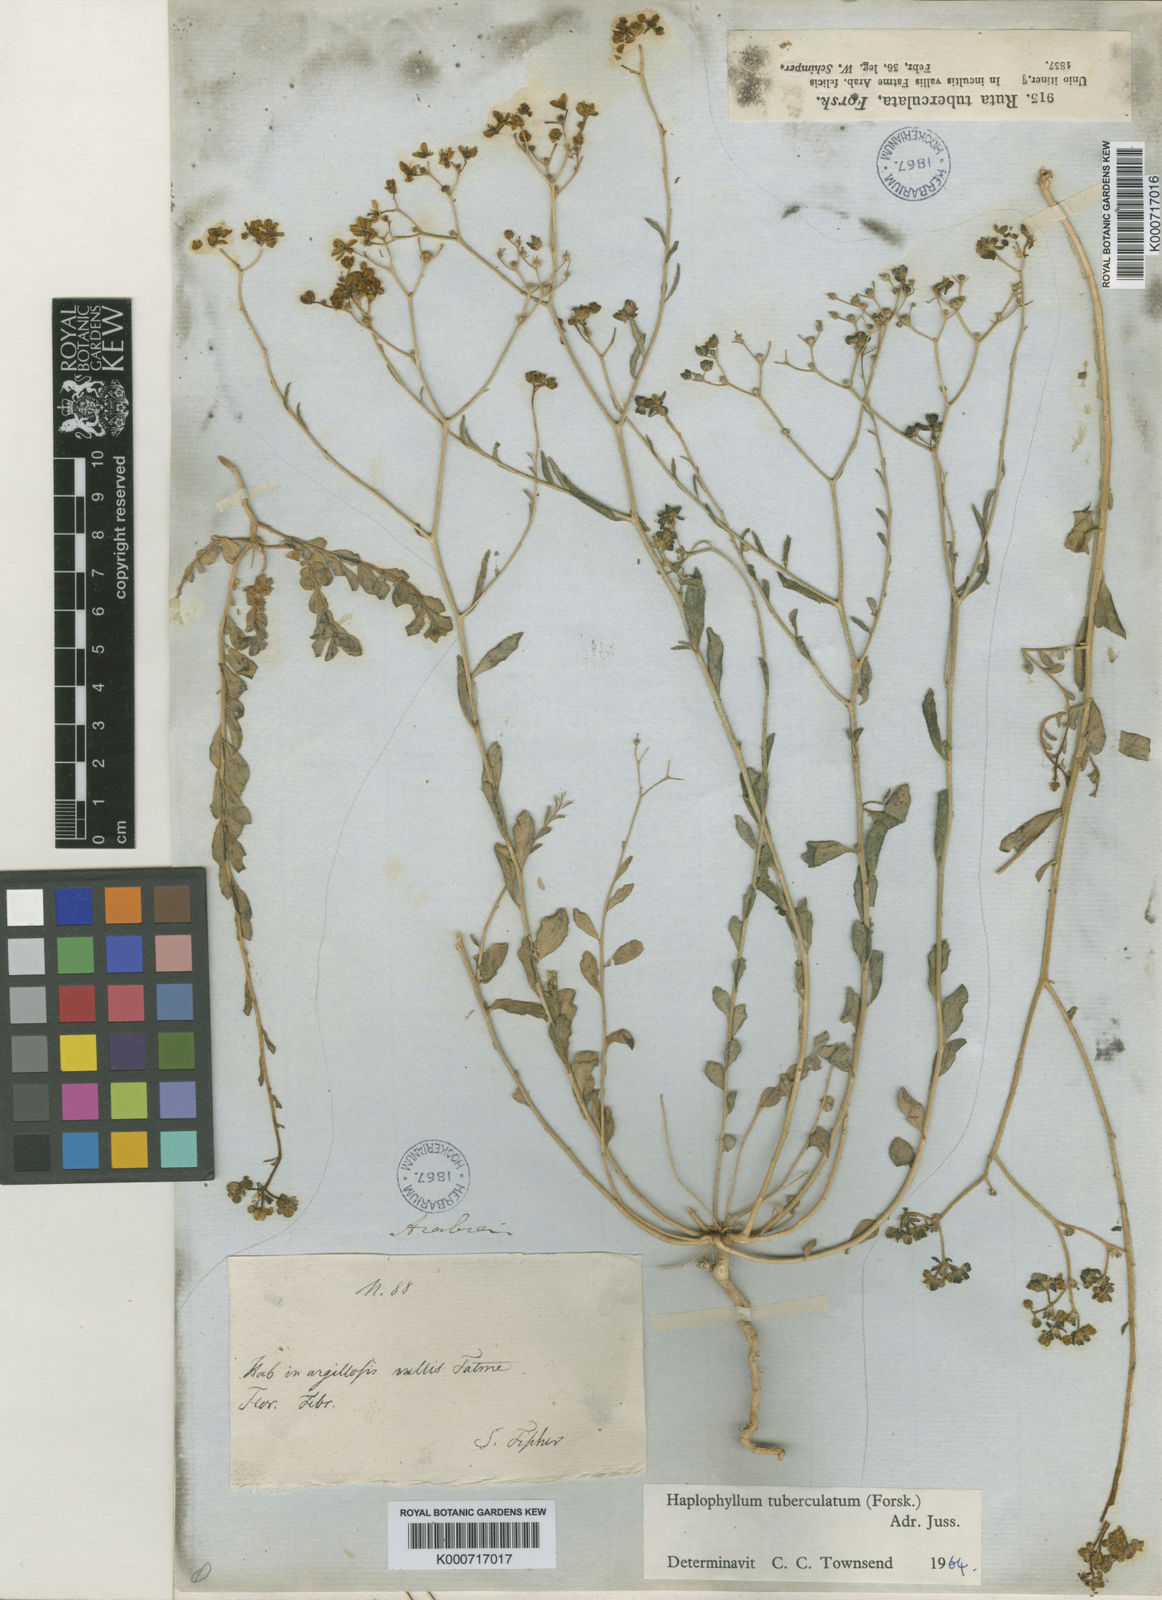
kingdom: Plantae
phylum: Tracheophyta
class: Magnoliopsida
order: Sapindales
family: Rutaceae
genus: Haplophyllum
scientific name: Haplophyllum tuberculatum
